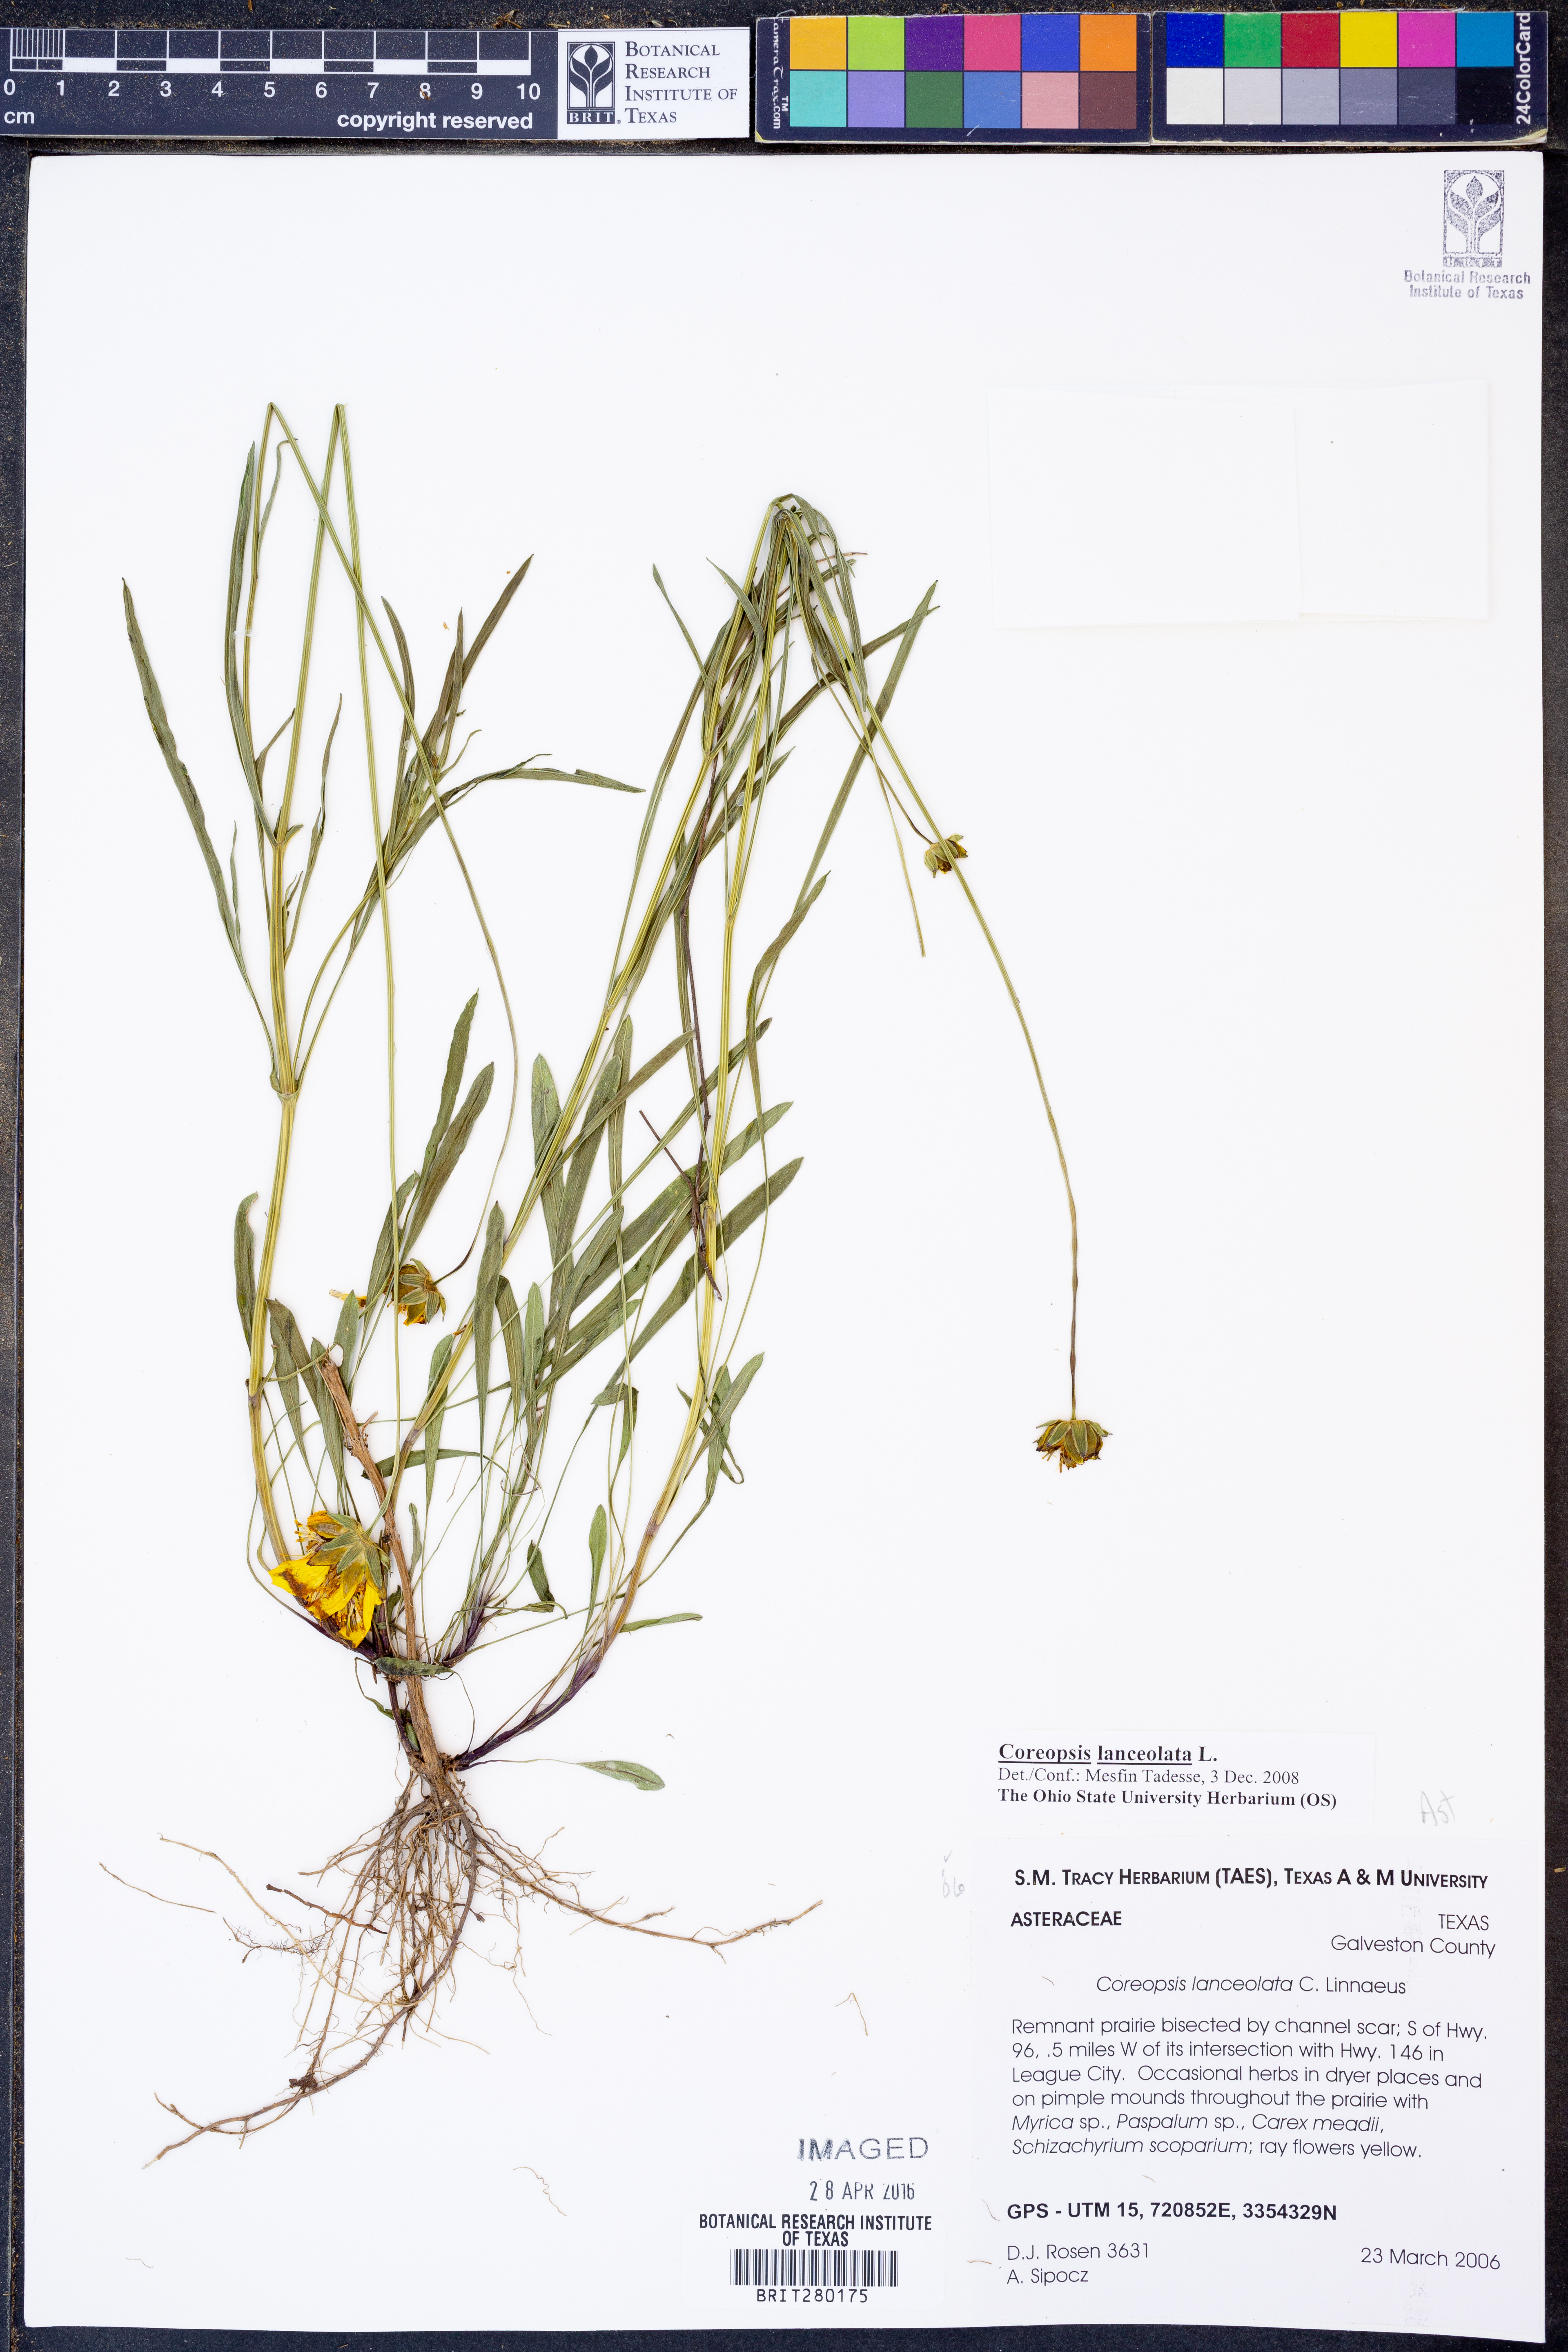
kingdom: Plantae
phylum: Tracheophyta
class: Magnoliopsida
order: Asterales
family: Asteraceae
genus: Coreopsis
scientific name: Coreopsis lanceolata
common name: Garden coreopsis
